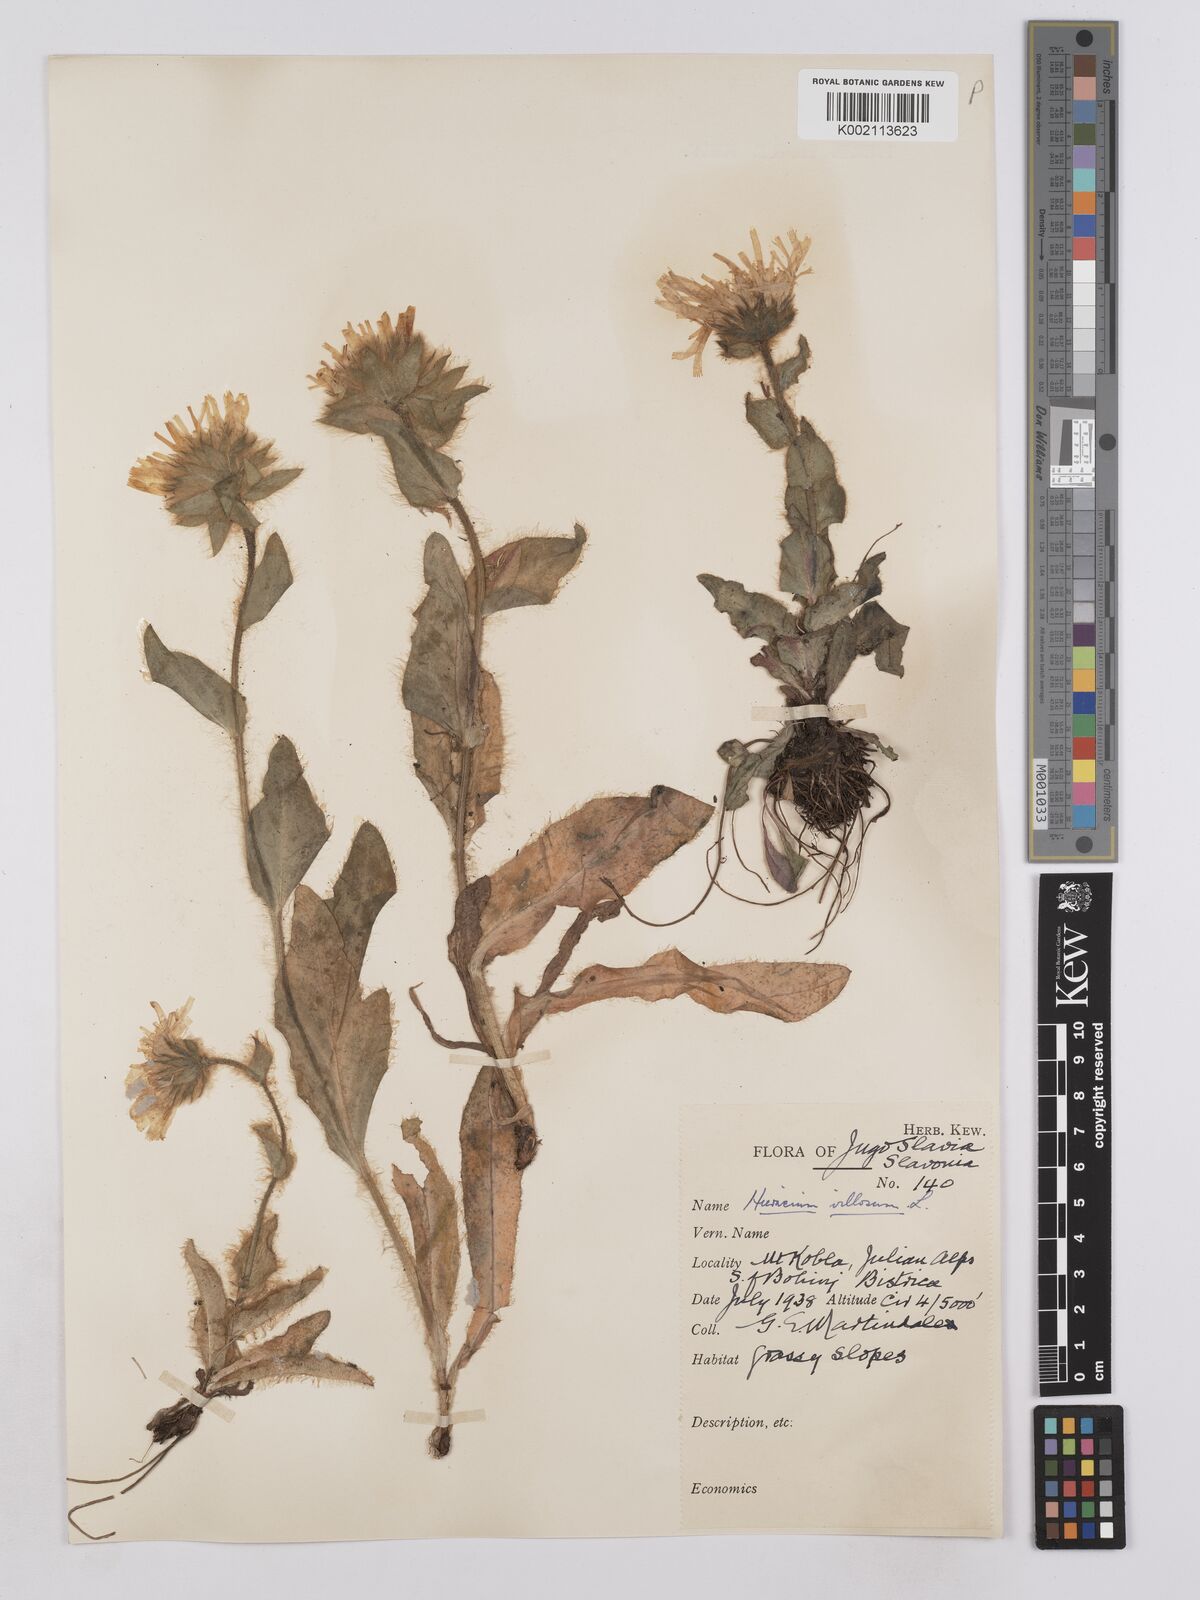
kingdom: Plantae
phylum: Tracheophyta
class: Magnoliopsida
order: Asterales
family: Asteraceae
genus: Hieracium
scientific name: Hieracium villosum
